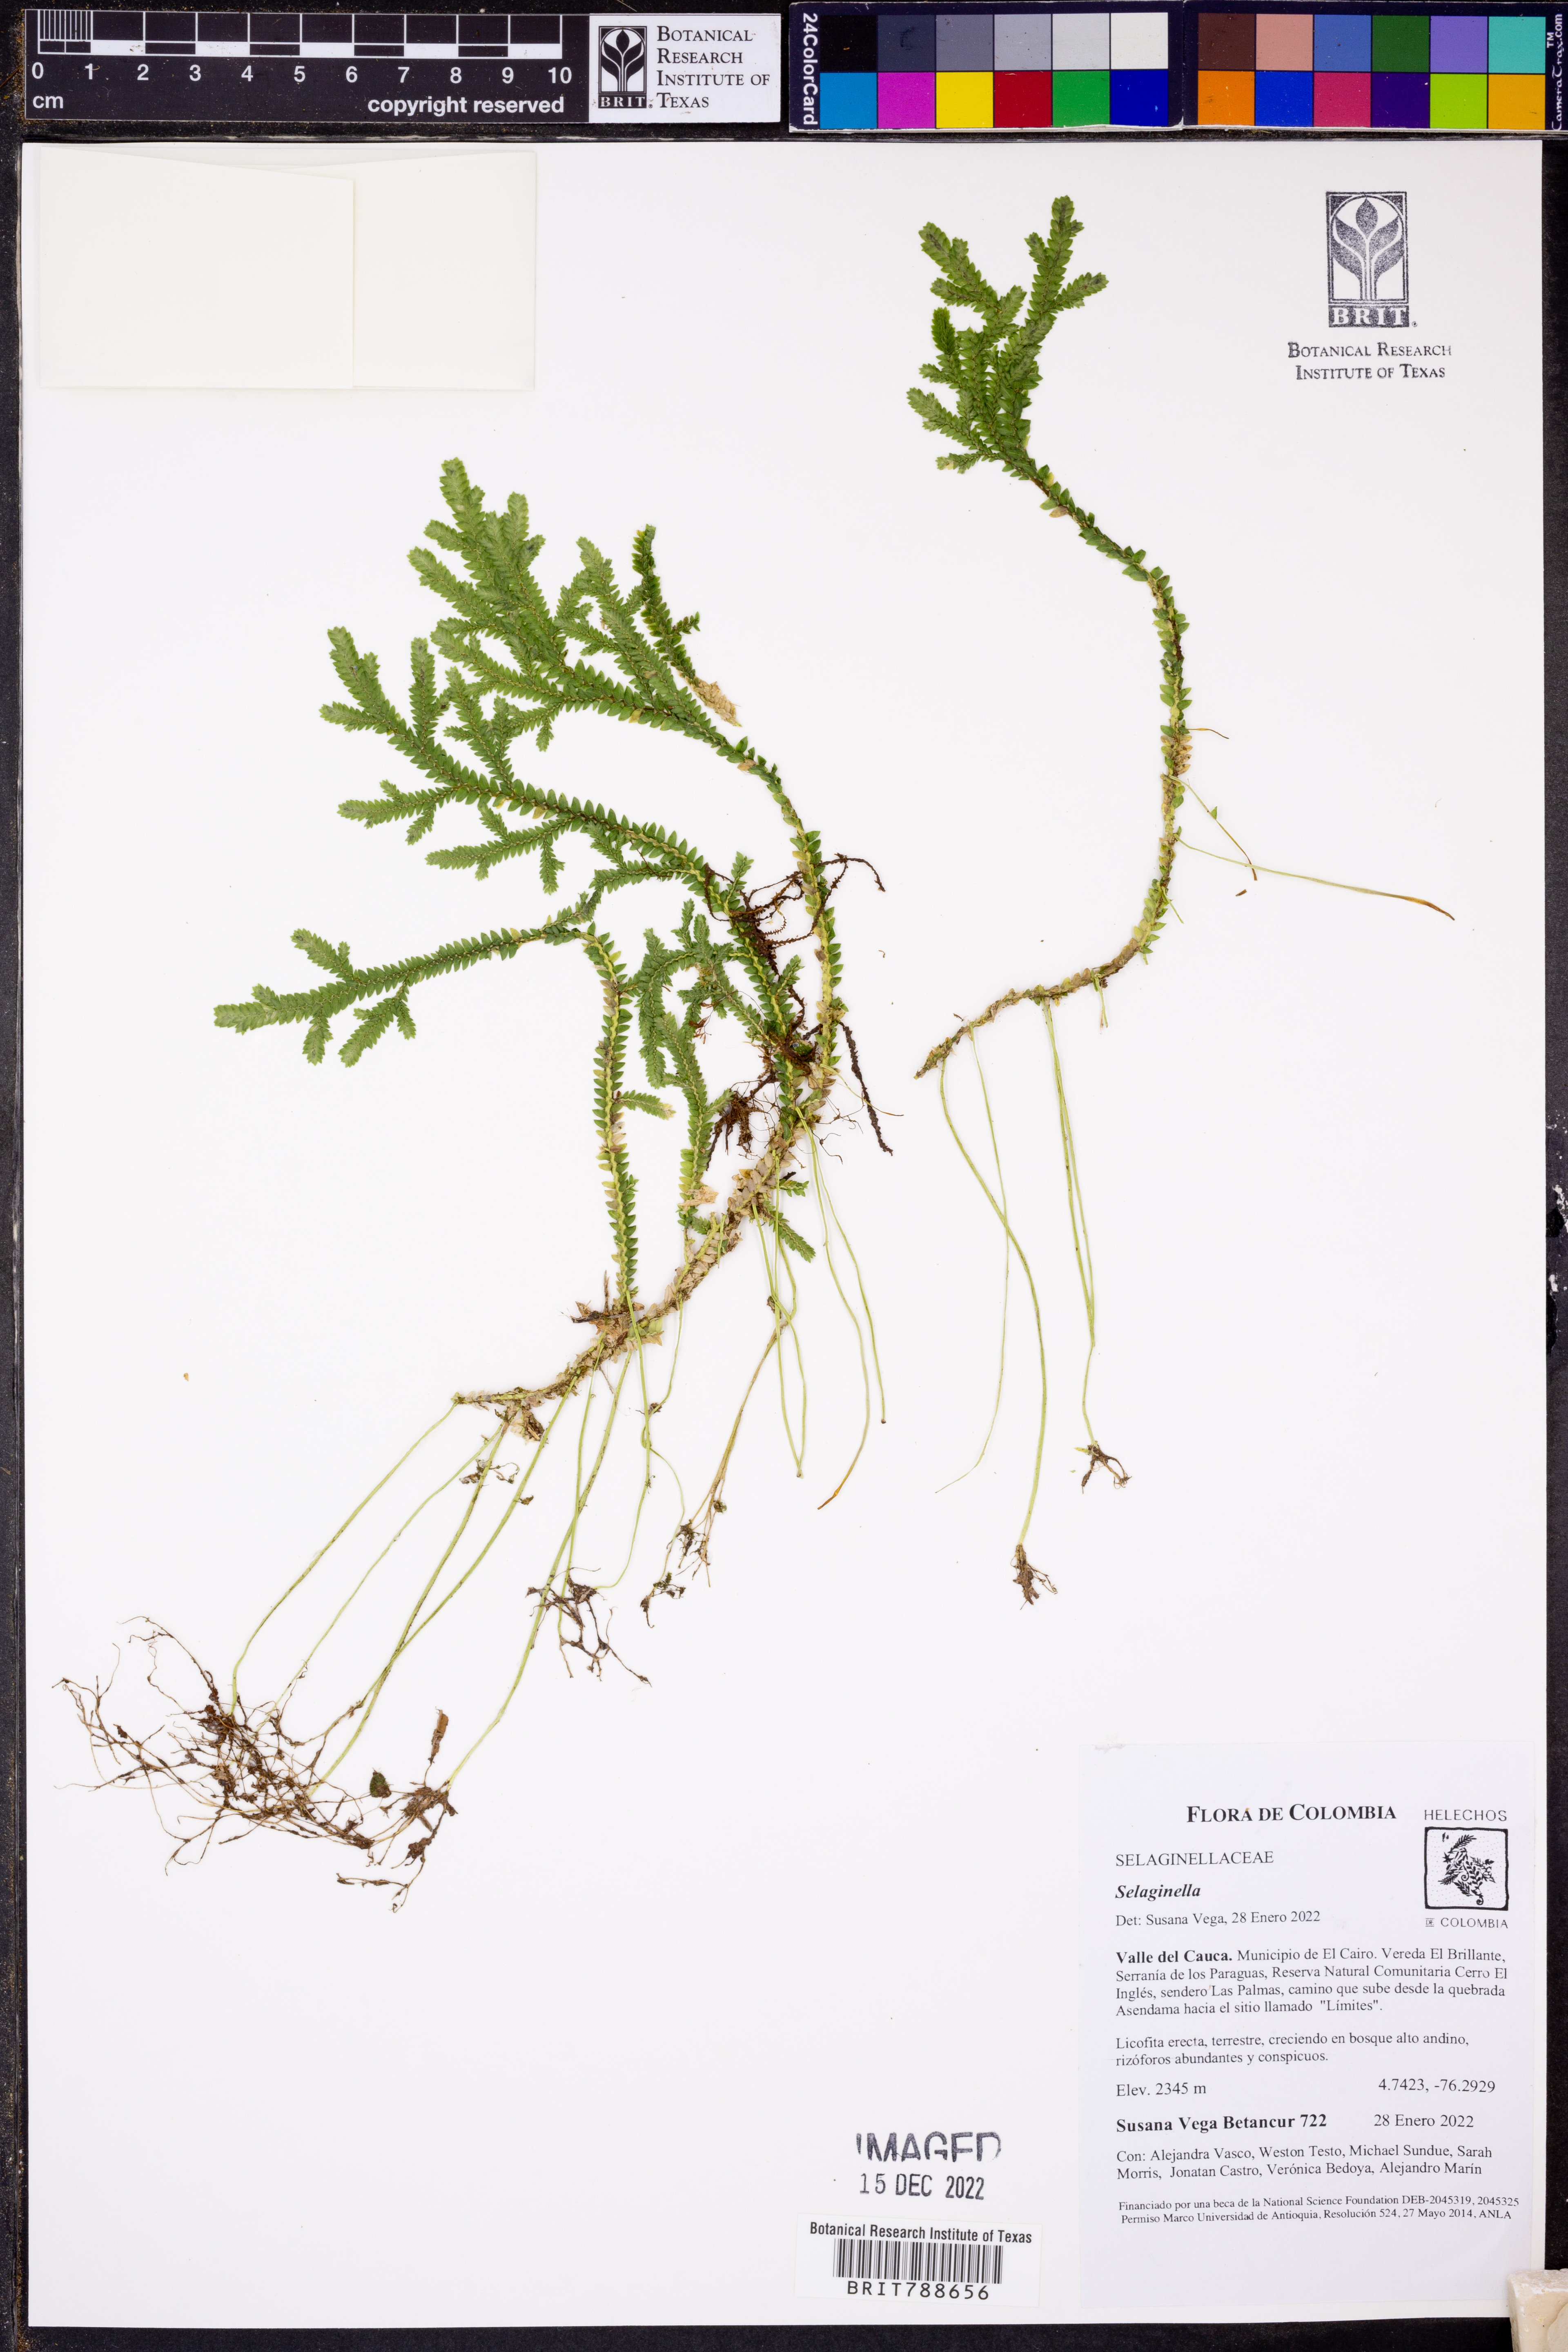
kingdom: Plantae
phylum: Tracheophyta
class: Lycopodiopsida
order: Selaginellales
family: Selaginellaceae
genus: Selaginella
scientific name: Selaginella
